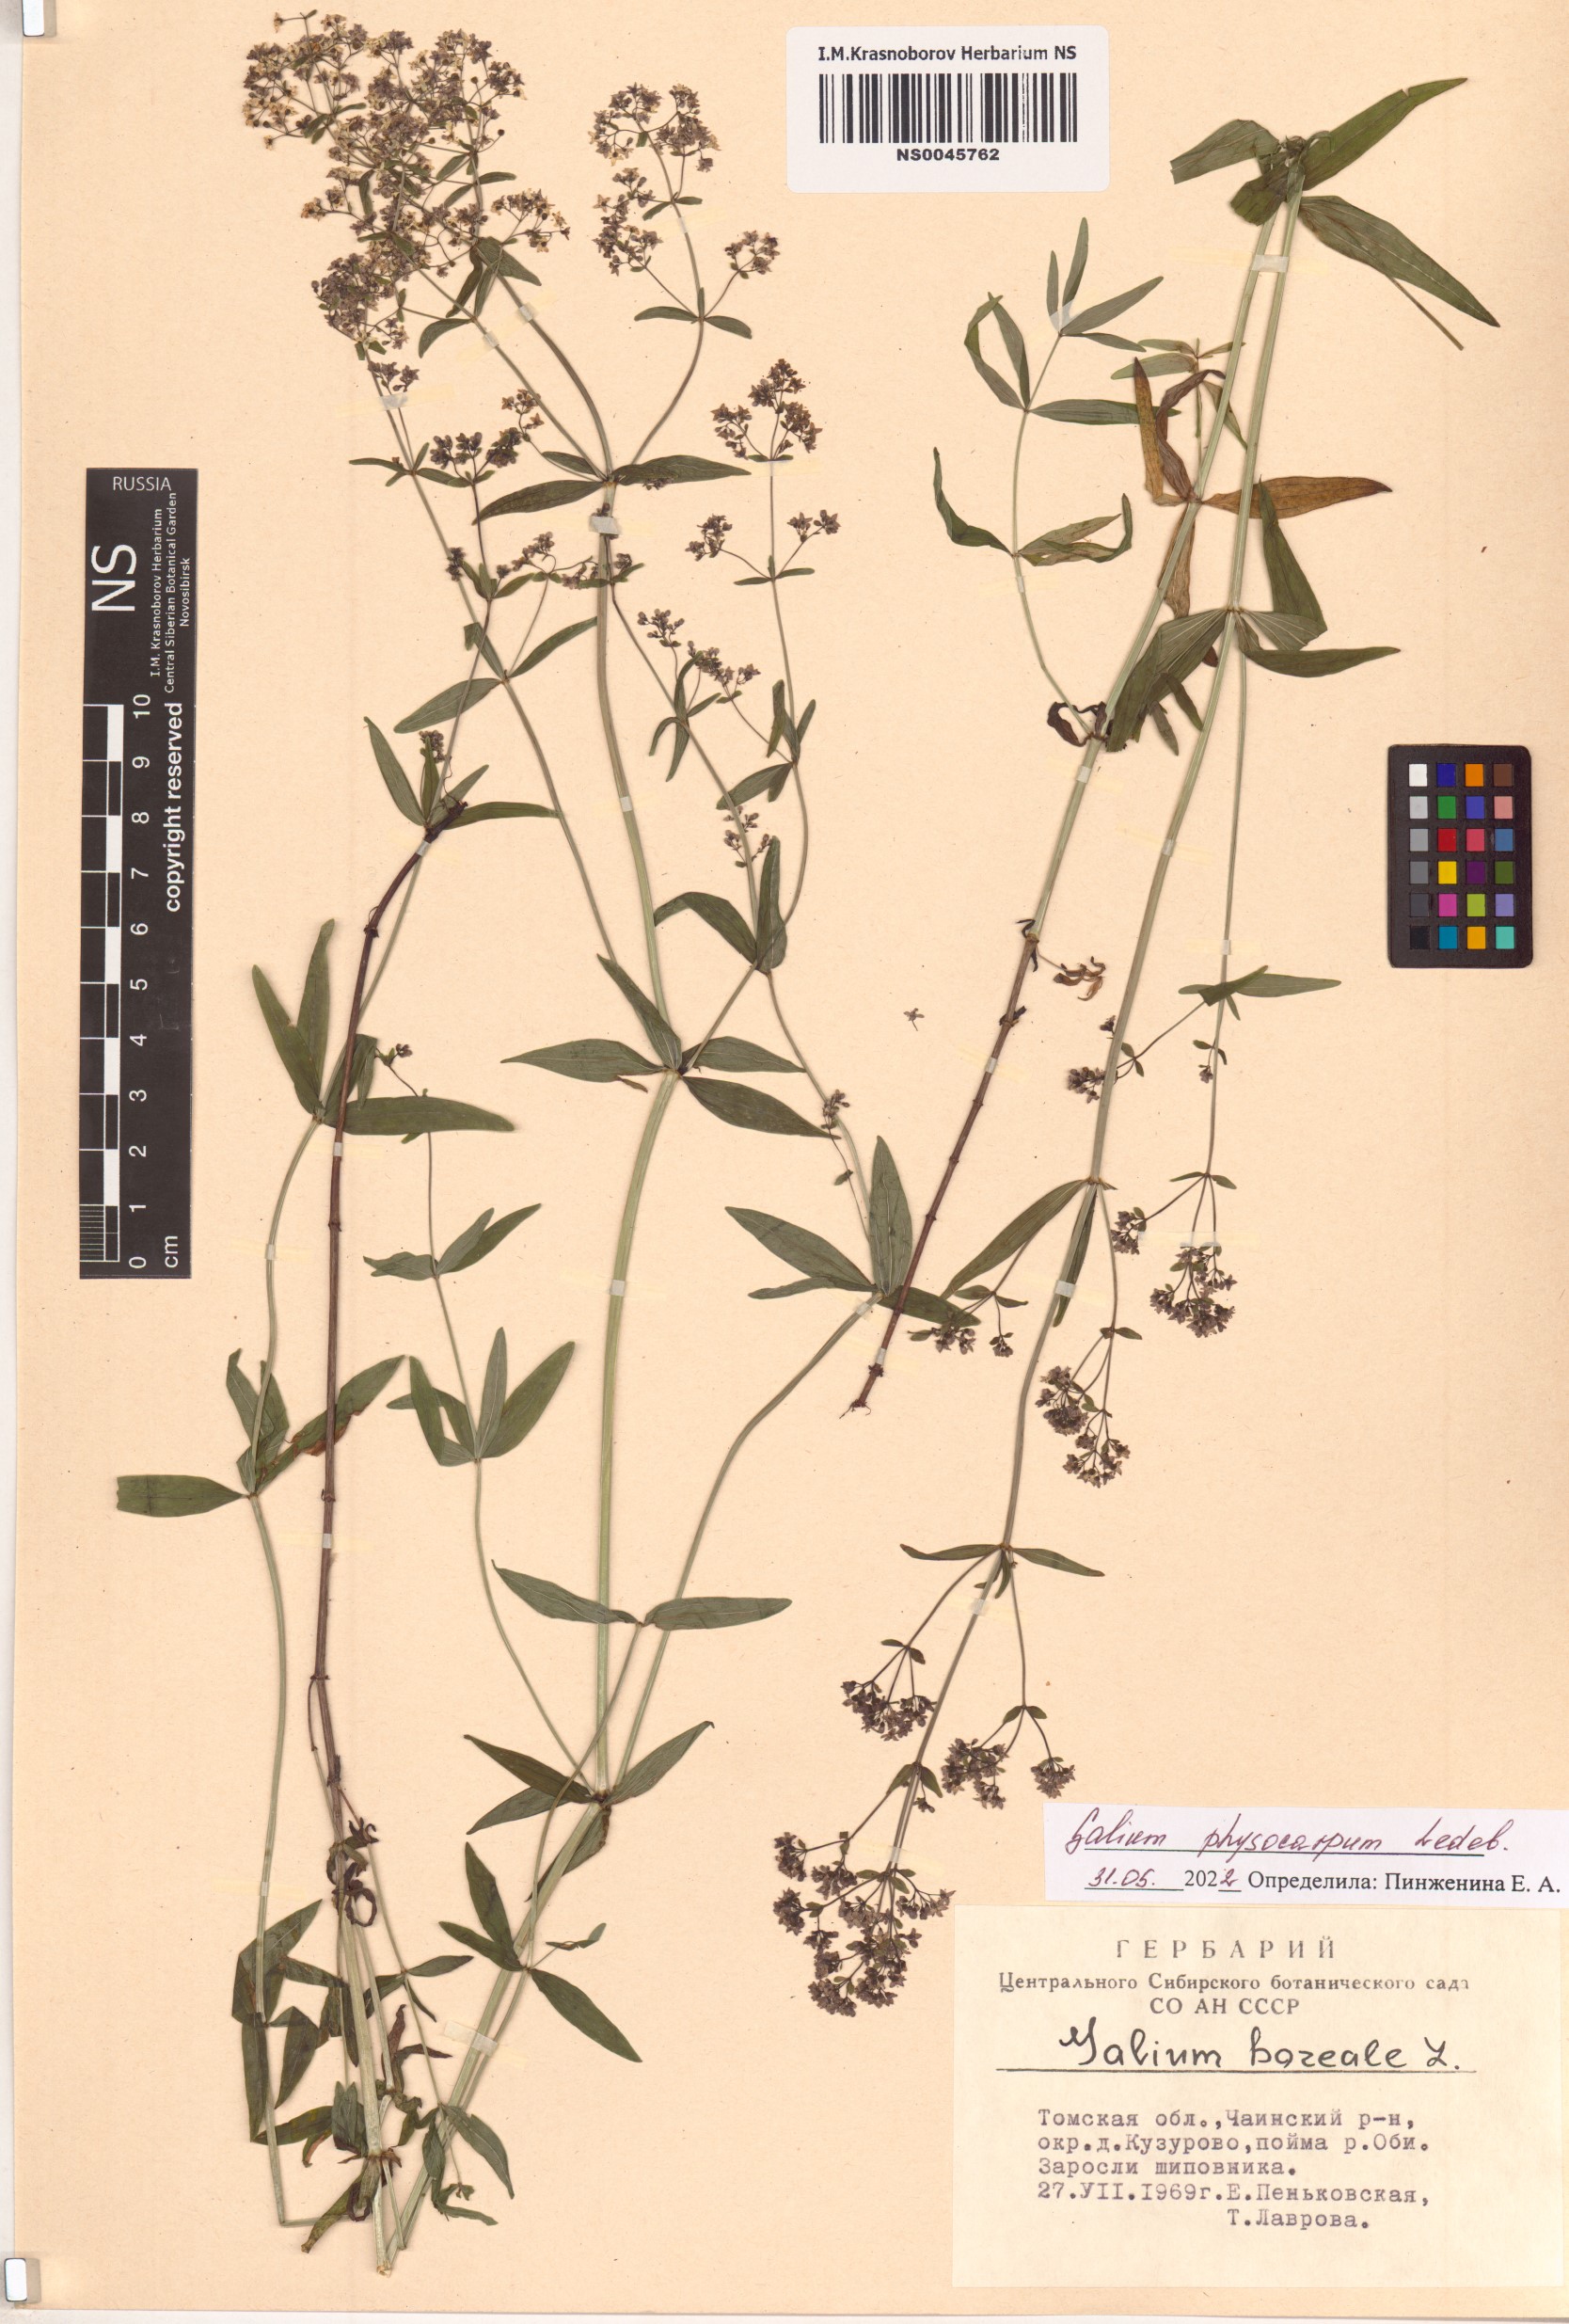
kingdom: Plantae
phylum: Tracheophyta
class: Magnoliopsida
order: Gentianales
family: Rubiaceae
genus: Galium
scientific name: Galium rubioides
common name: European bedstraw
